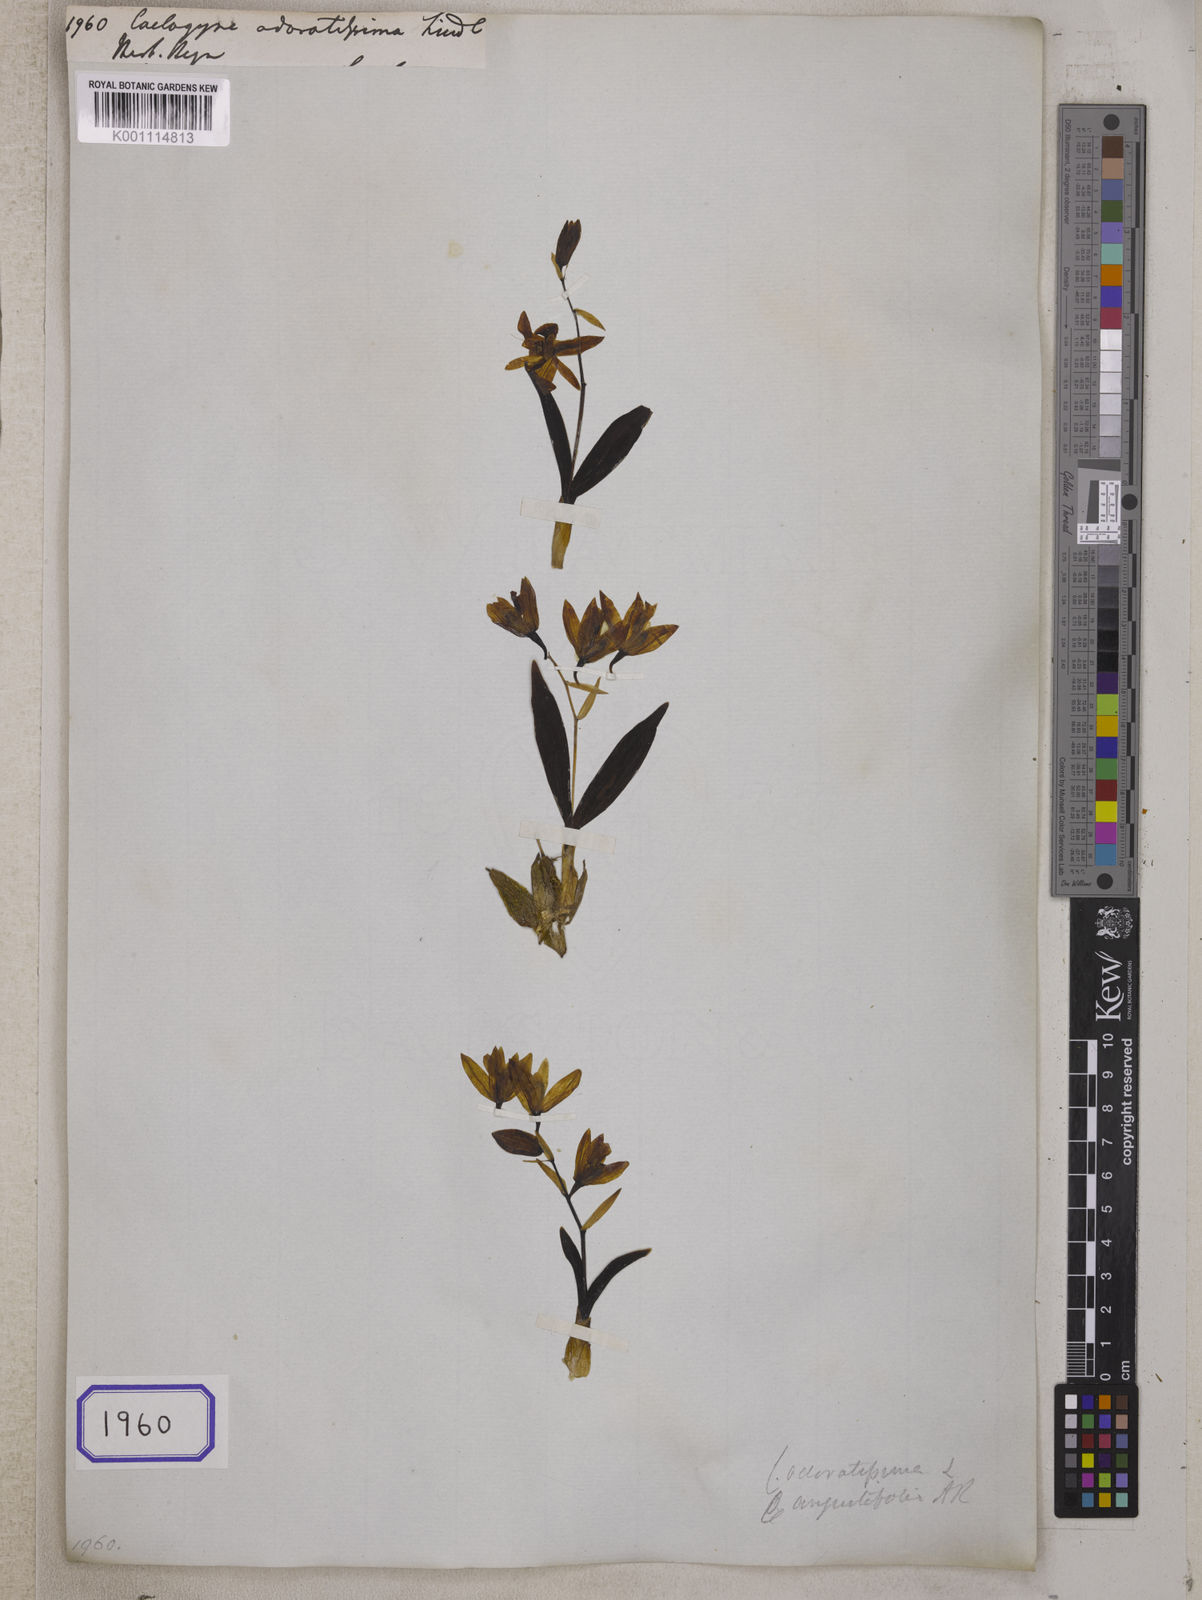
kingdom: Plantae
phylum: Tracheophyta
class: Liliopsida
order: Asparagales
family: Orchidaceae
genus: Coelogyne
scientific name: Coelogyne odoratissima
